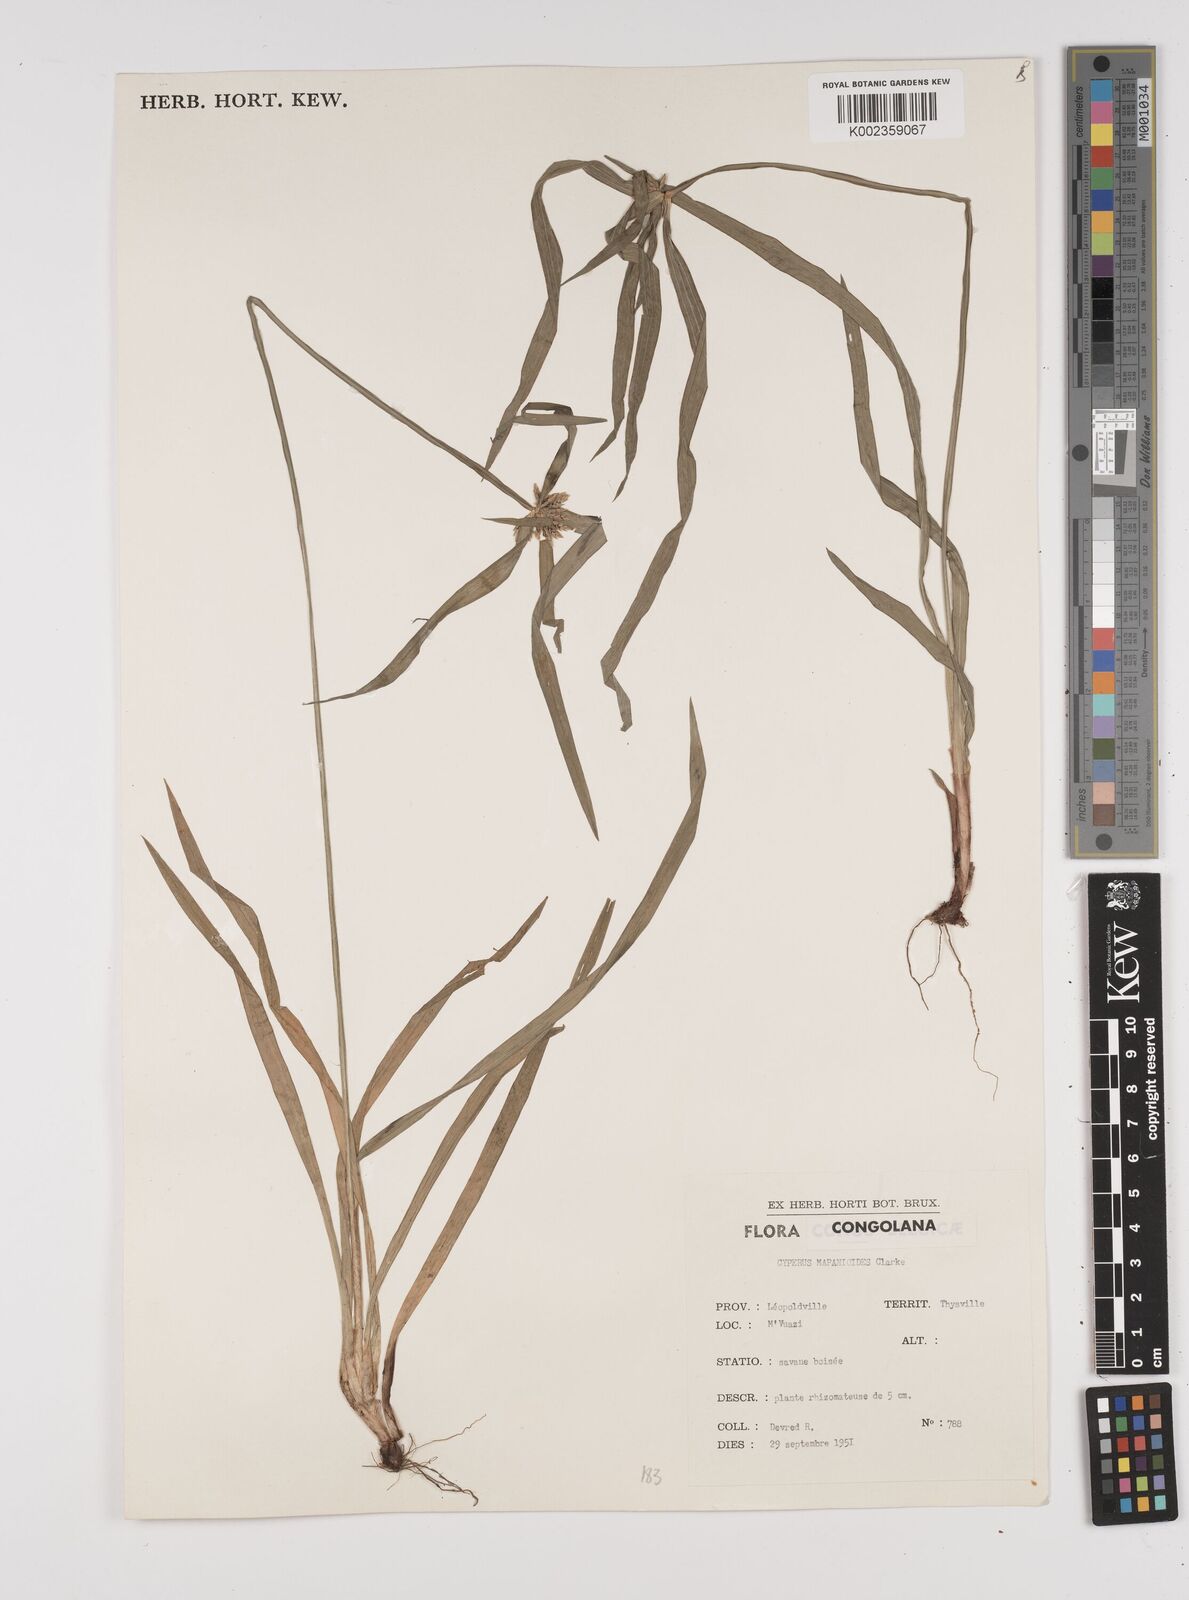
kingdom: Plantae
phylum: Tracheophyta
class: Liliopsida
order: Poales
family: Cyperaceae
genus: Cyperus
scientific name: Cyperus mapanioides
